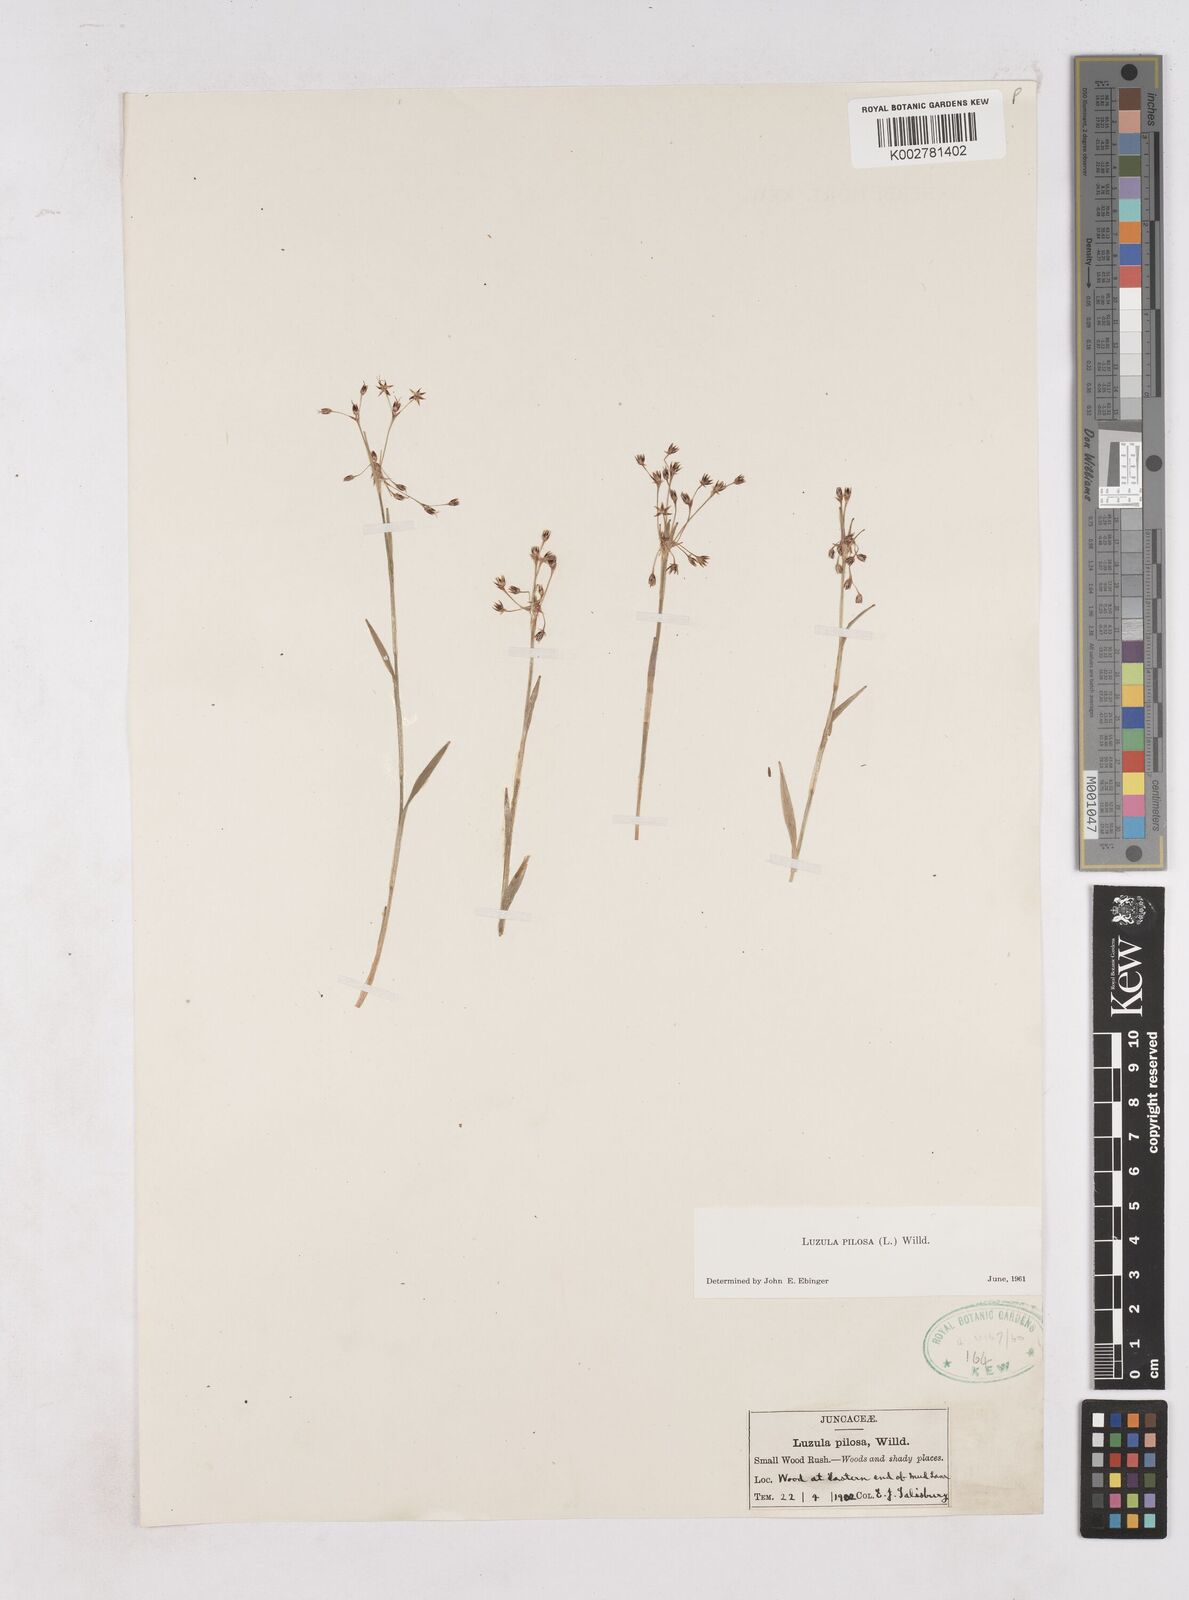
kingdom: Plantae
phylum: Tracheophyta
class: Liliopsida
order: Poales
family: Juncaceae
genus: Luzula
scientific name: Luzula pilosa
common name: Hairy wood-rush
